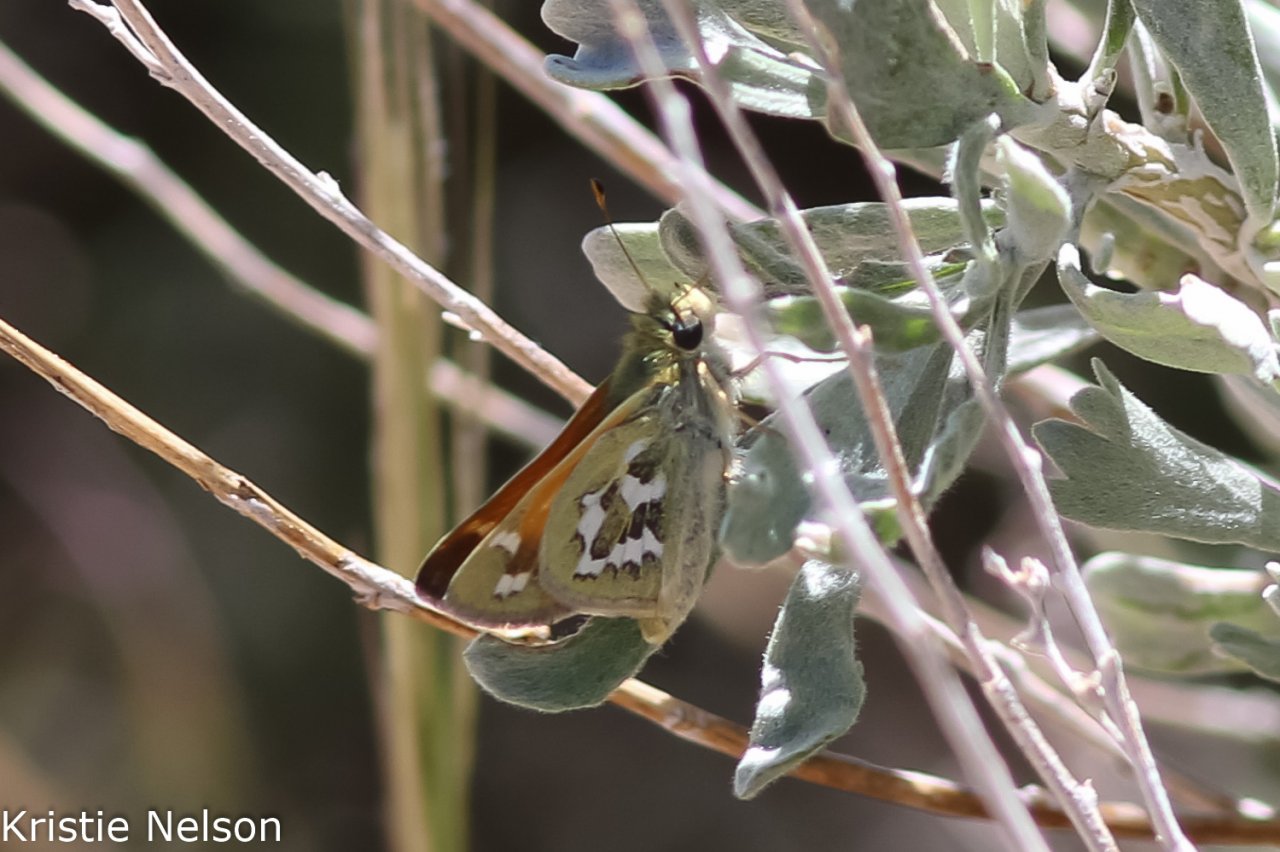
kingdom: Animalia
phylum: Arthropoda
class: Insecta
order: Lepidoptera
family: Hesperiidae
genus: Hesperia
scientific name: Hesperia comma
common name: Western Branded Skipper
